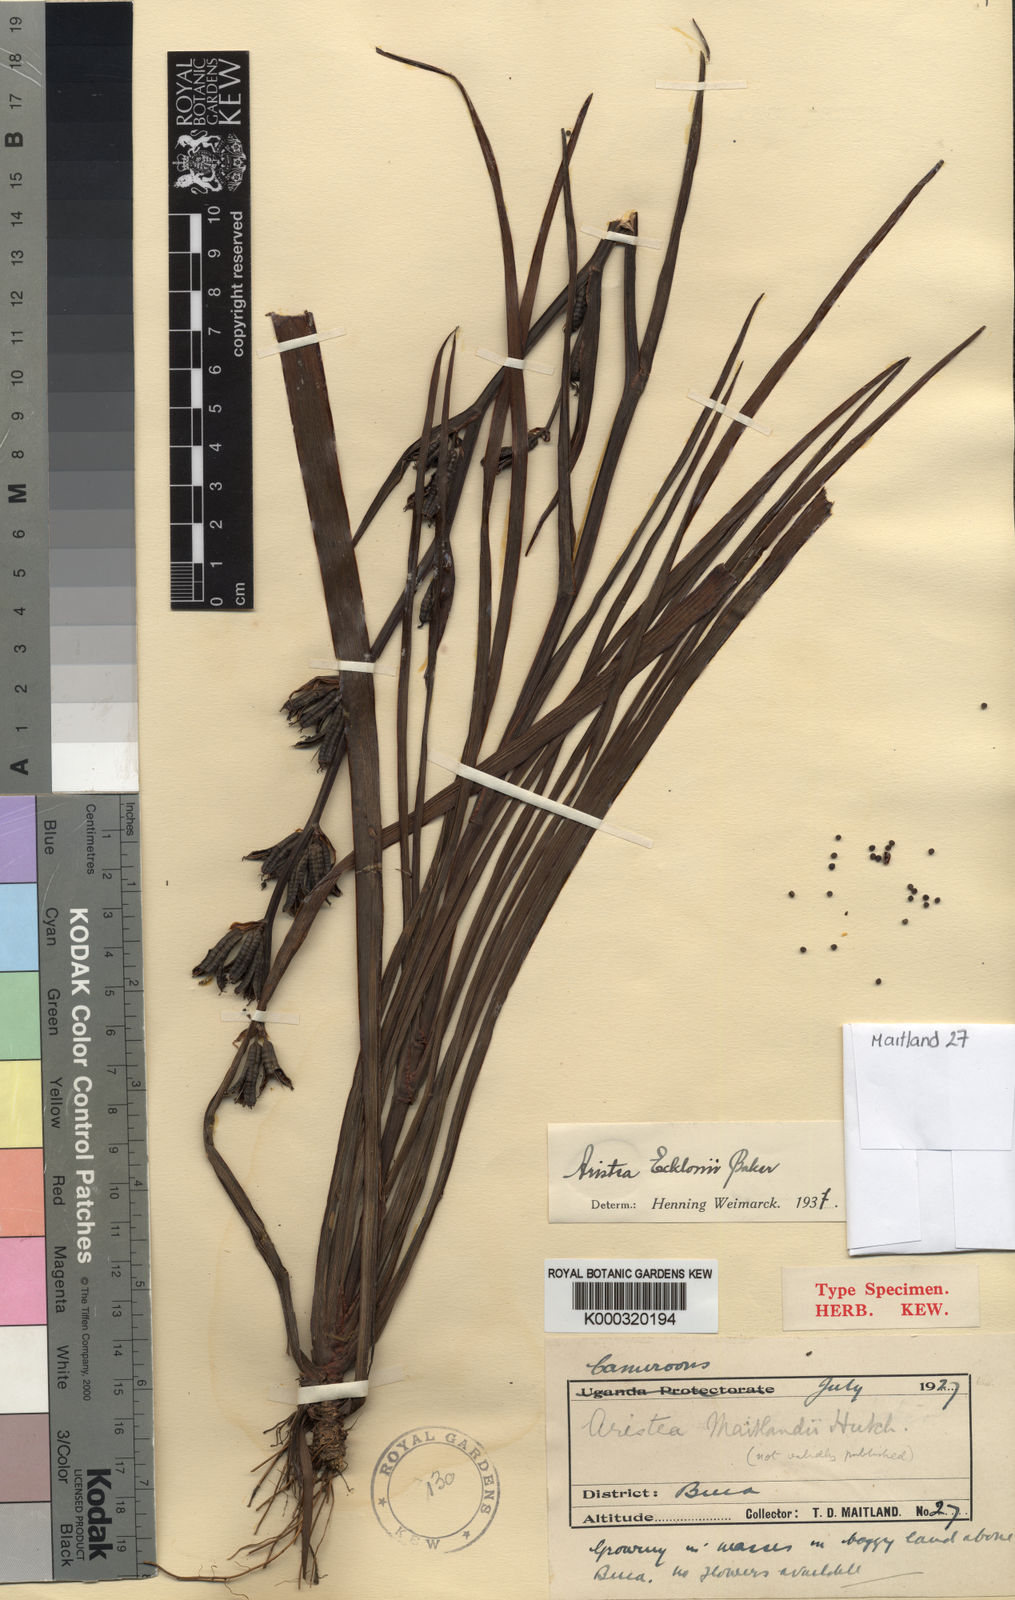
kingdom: Plantae
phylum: Tracheophyta
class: Liliopsida
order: Asparagales
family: Iridaceae
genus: Aristea
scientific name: Aristea ecklonii
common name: Blue corn-lily
